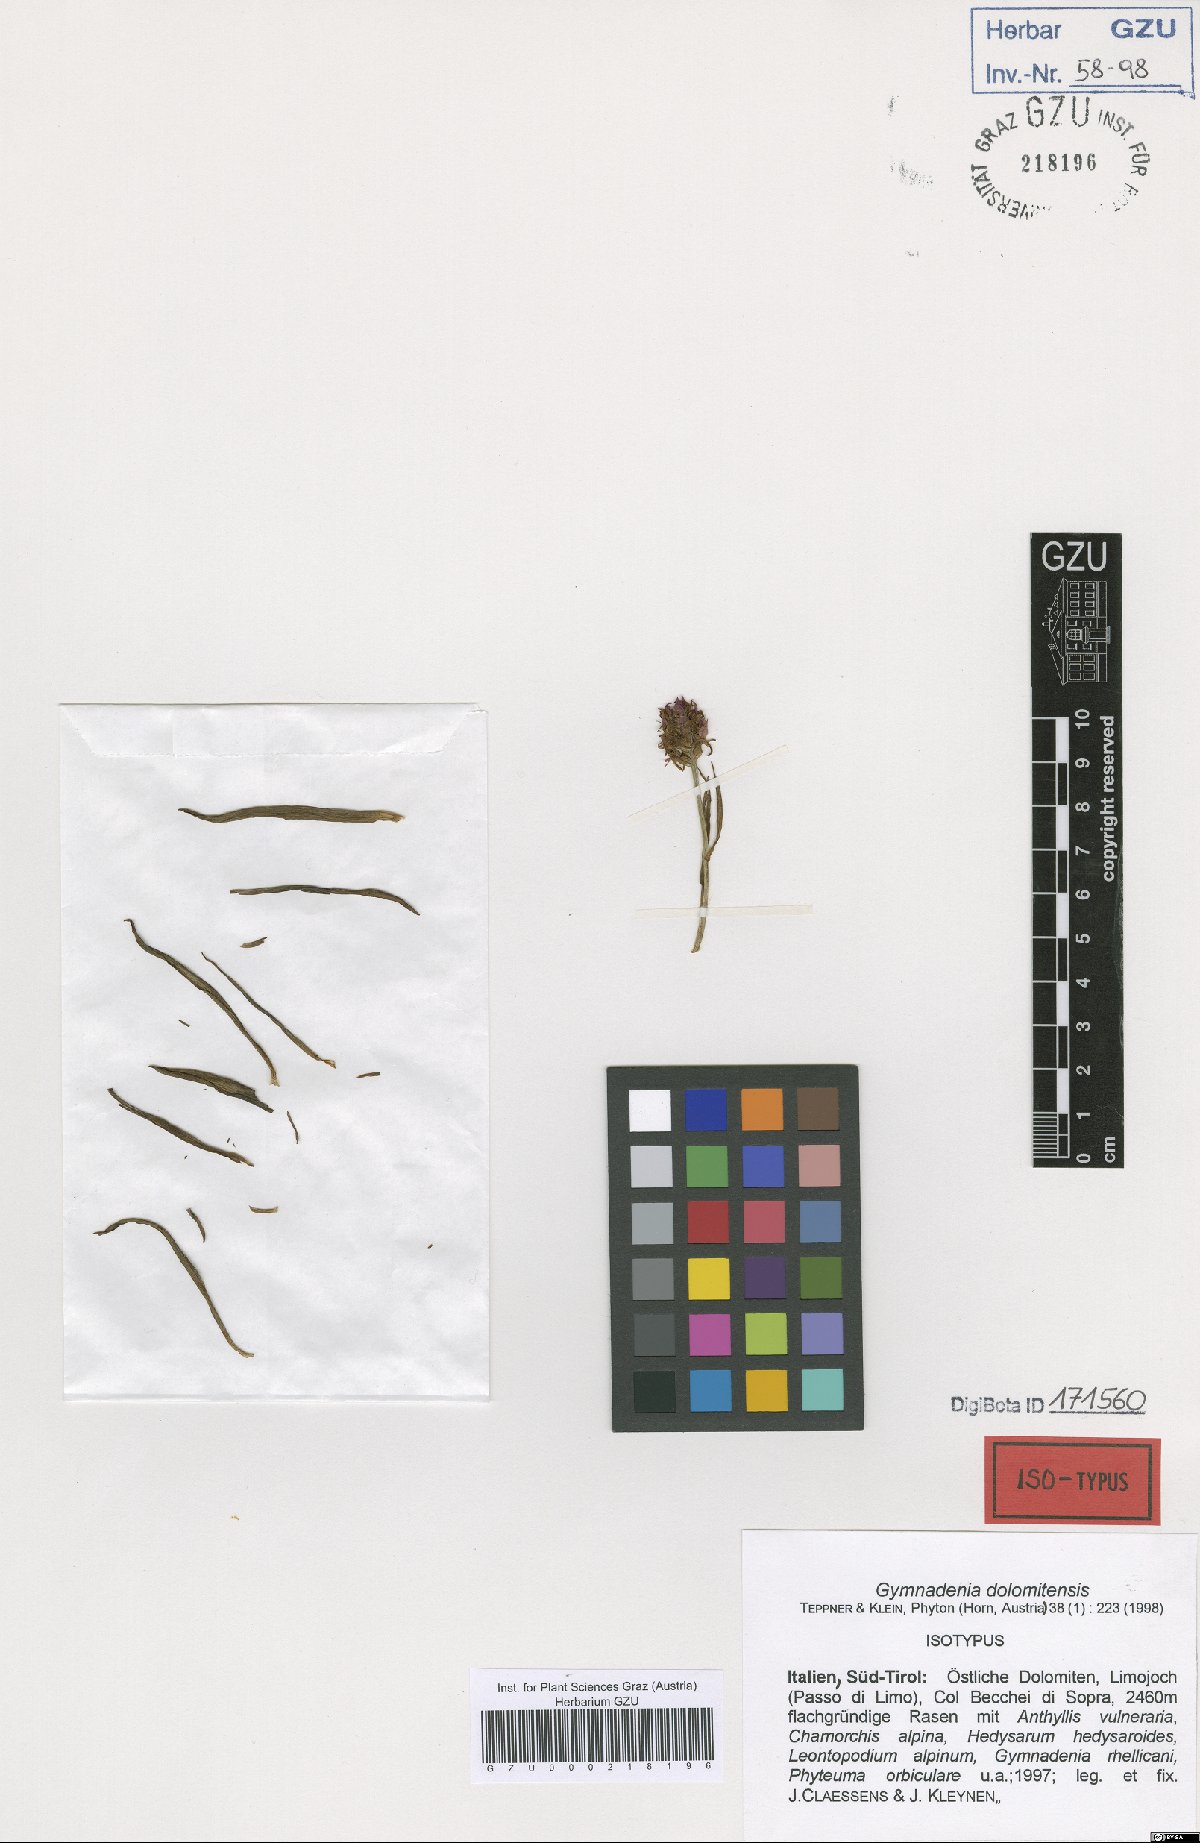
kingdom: Plantae
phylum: Tracheophyta
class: Liliopsida
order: Asparagales
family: Orchidaceae
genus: Gymnadenia
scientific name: Gymnadenia dolomitensis
